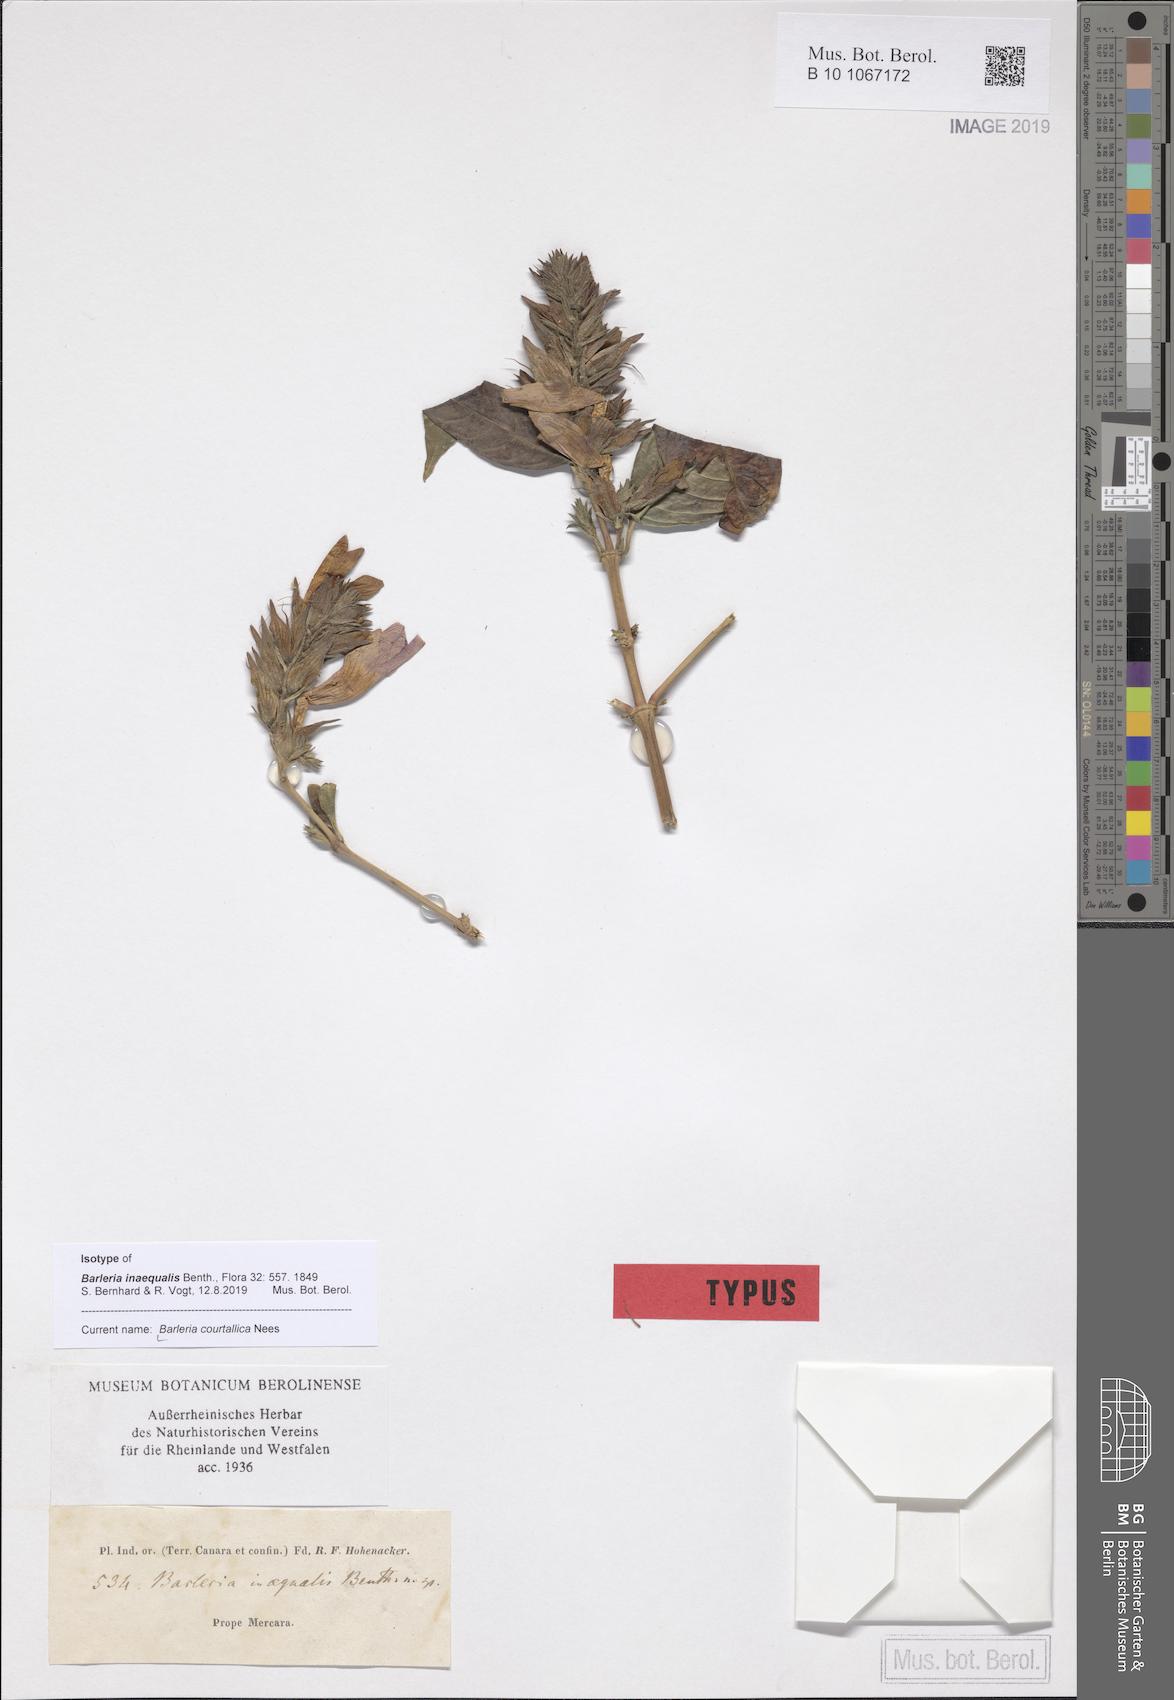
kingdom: Plantae
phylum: Tracheophyta
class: Magnoliopsida
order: Lamiales
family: Acanthaceae
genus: Barleria
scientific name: Barleria courtallica
